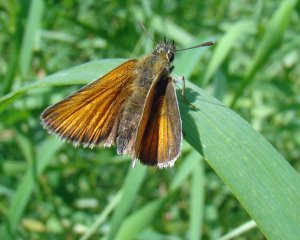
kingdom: Animalia
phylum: Arthropoda
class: Insecta
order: Lepidoptera
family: Hesperiidae
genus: Thymelicus
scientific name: Thymelicus lineola
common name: European Skipper
